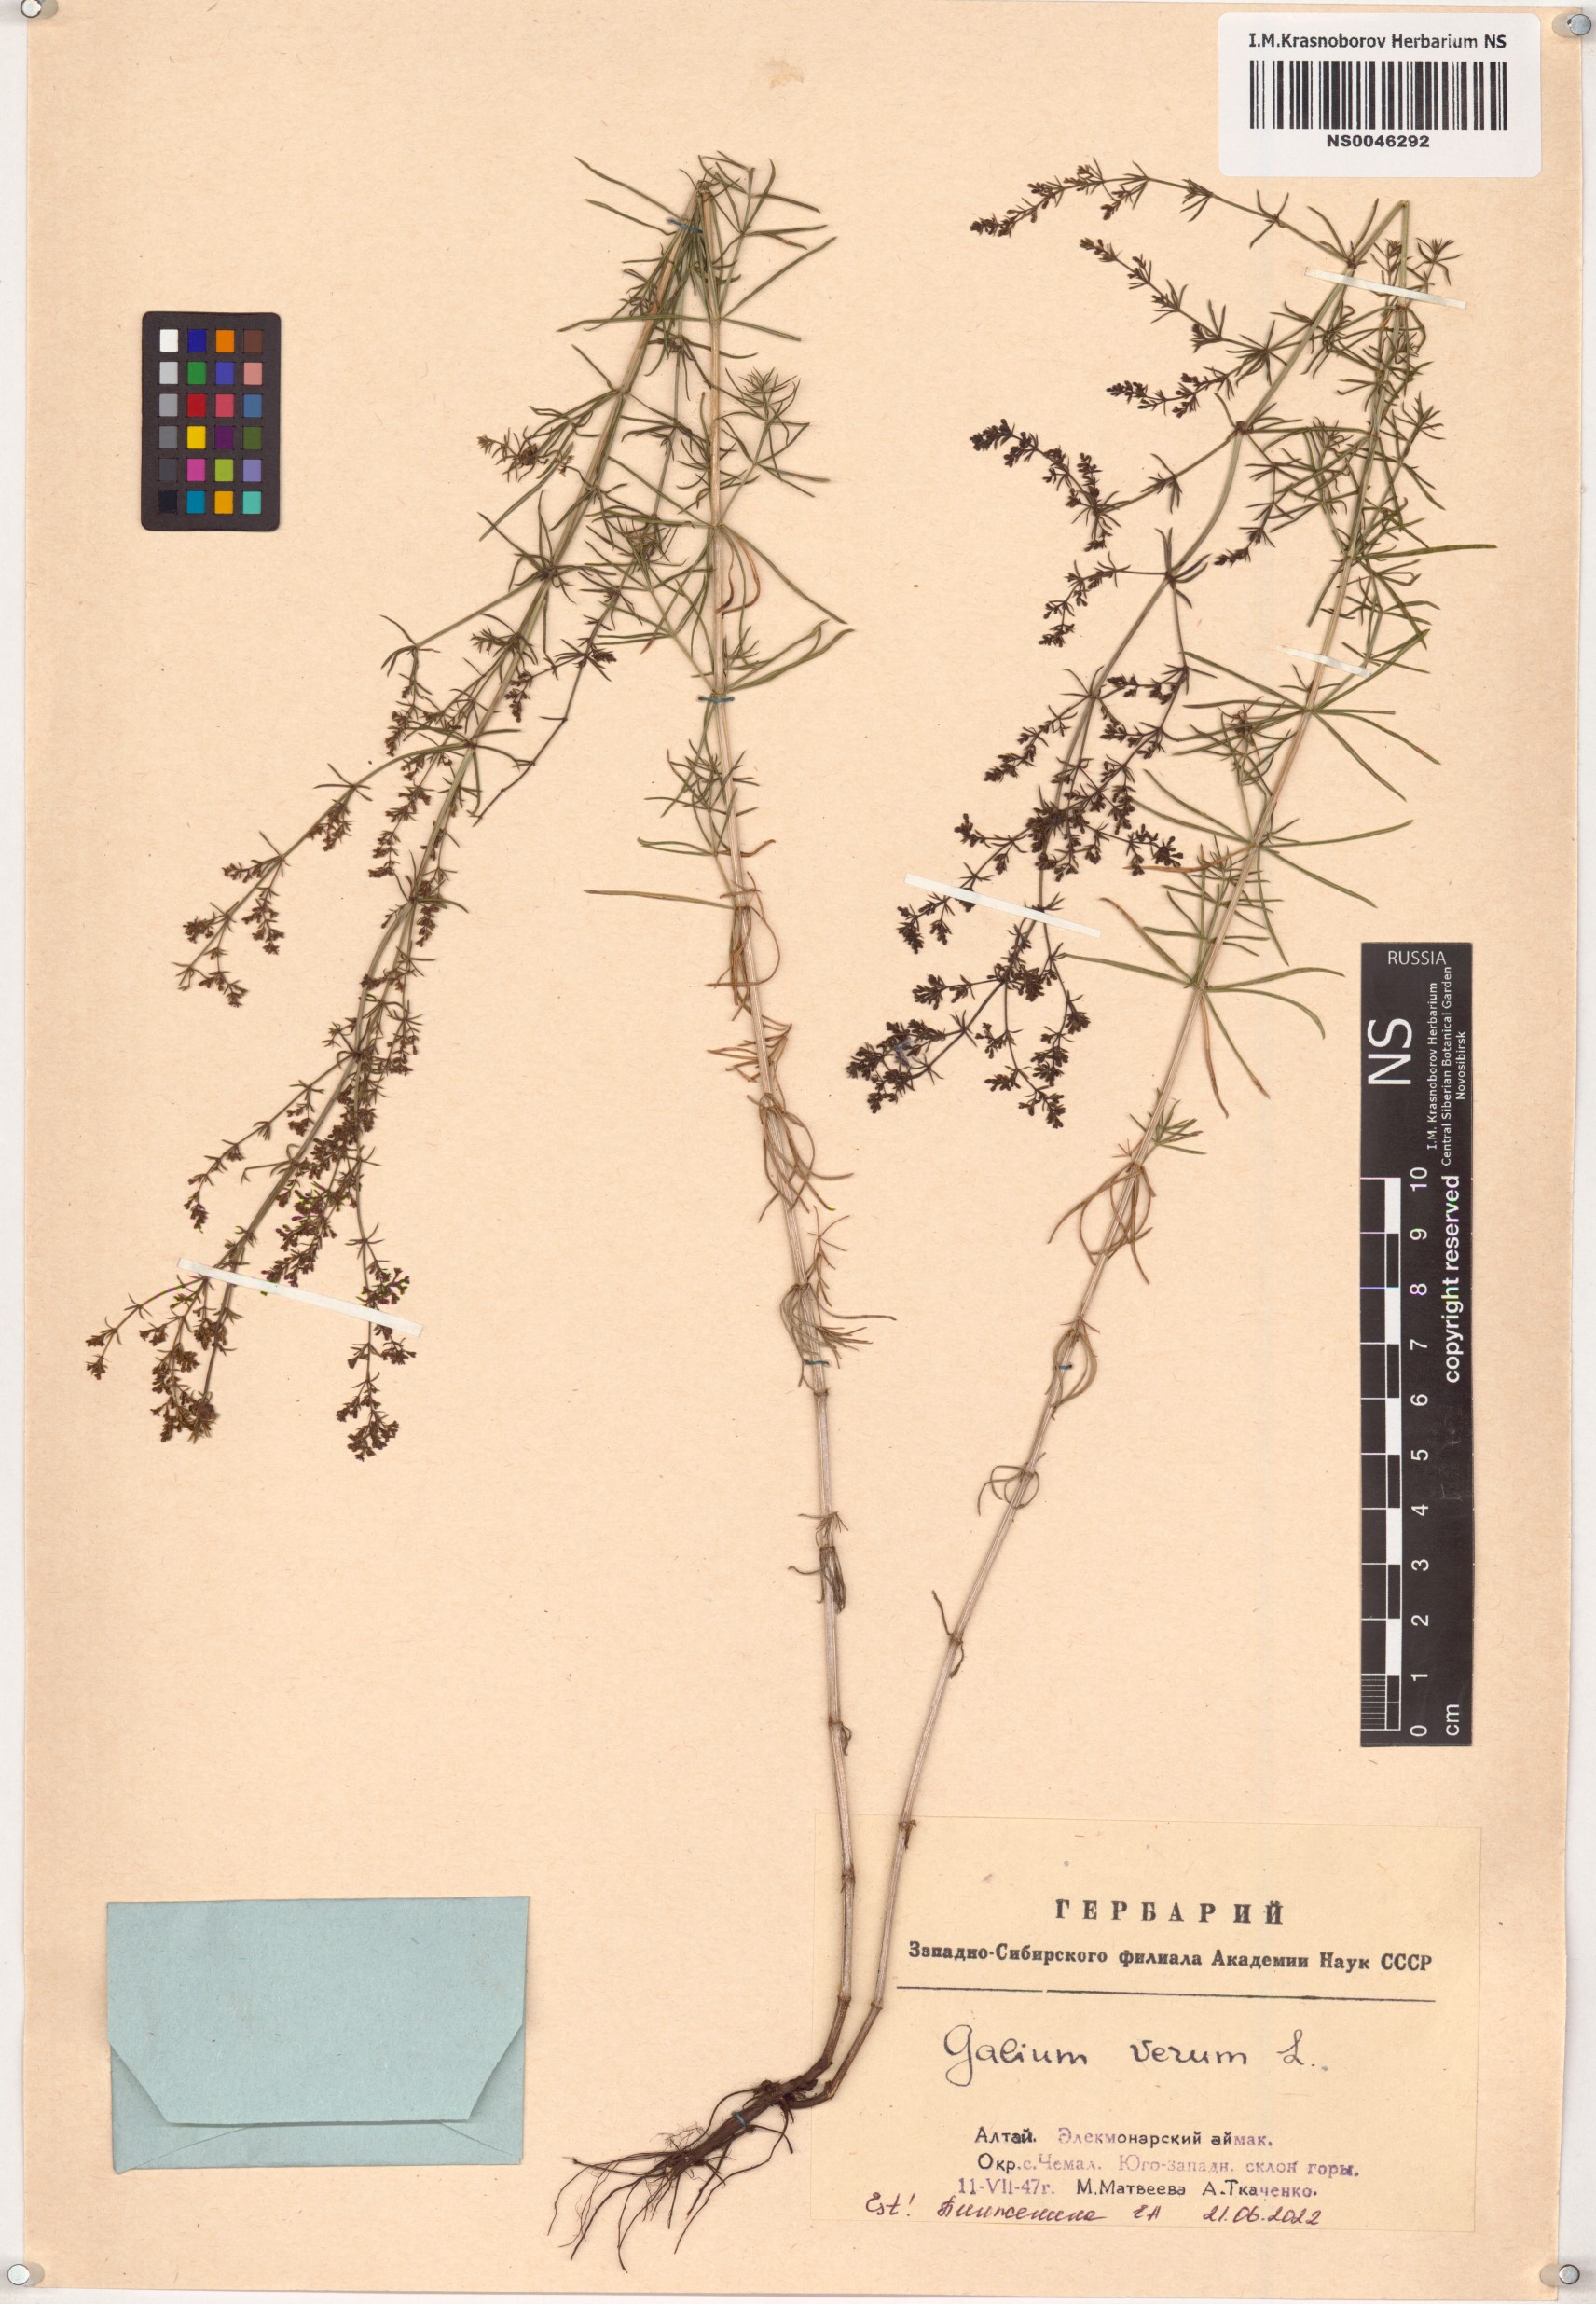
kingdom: Plantae
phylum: Tracheophyta
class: Magnoliopsida
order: Gentianales
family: Rubiaceae
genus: Galium
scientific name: Galium verum
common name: Lady's bedstraw
